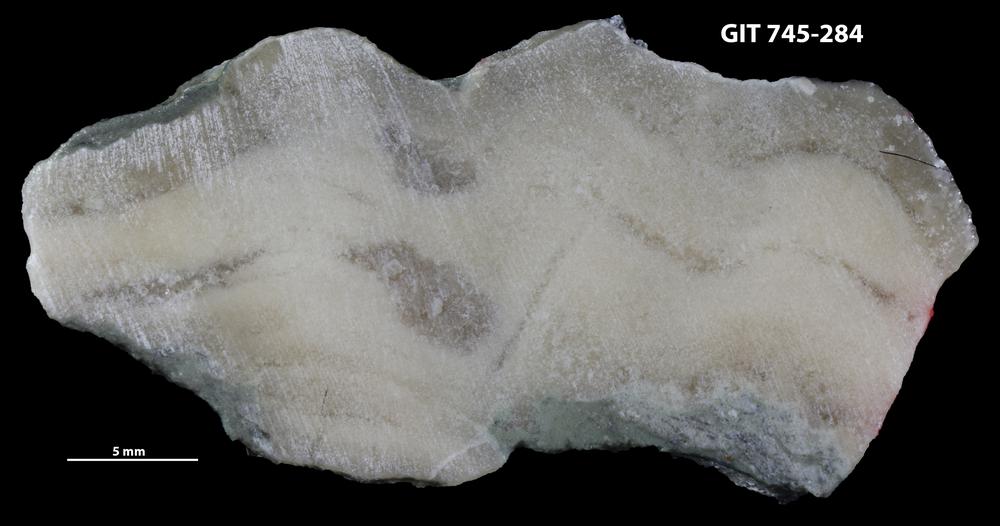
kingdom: Animalia
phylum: Porifera
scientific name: Porifera
